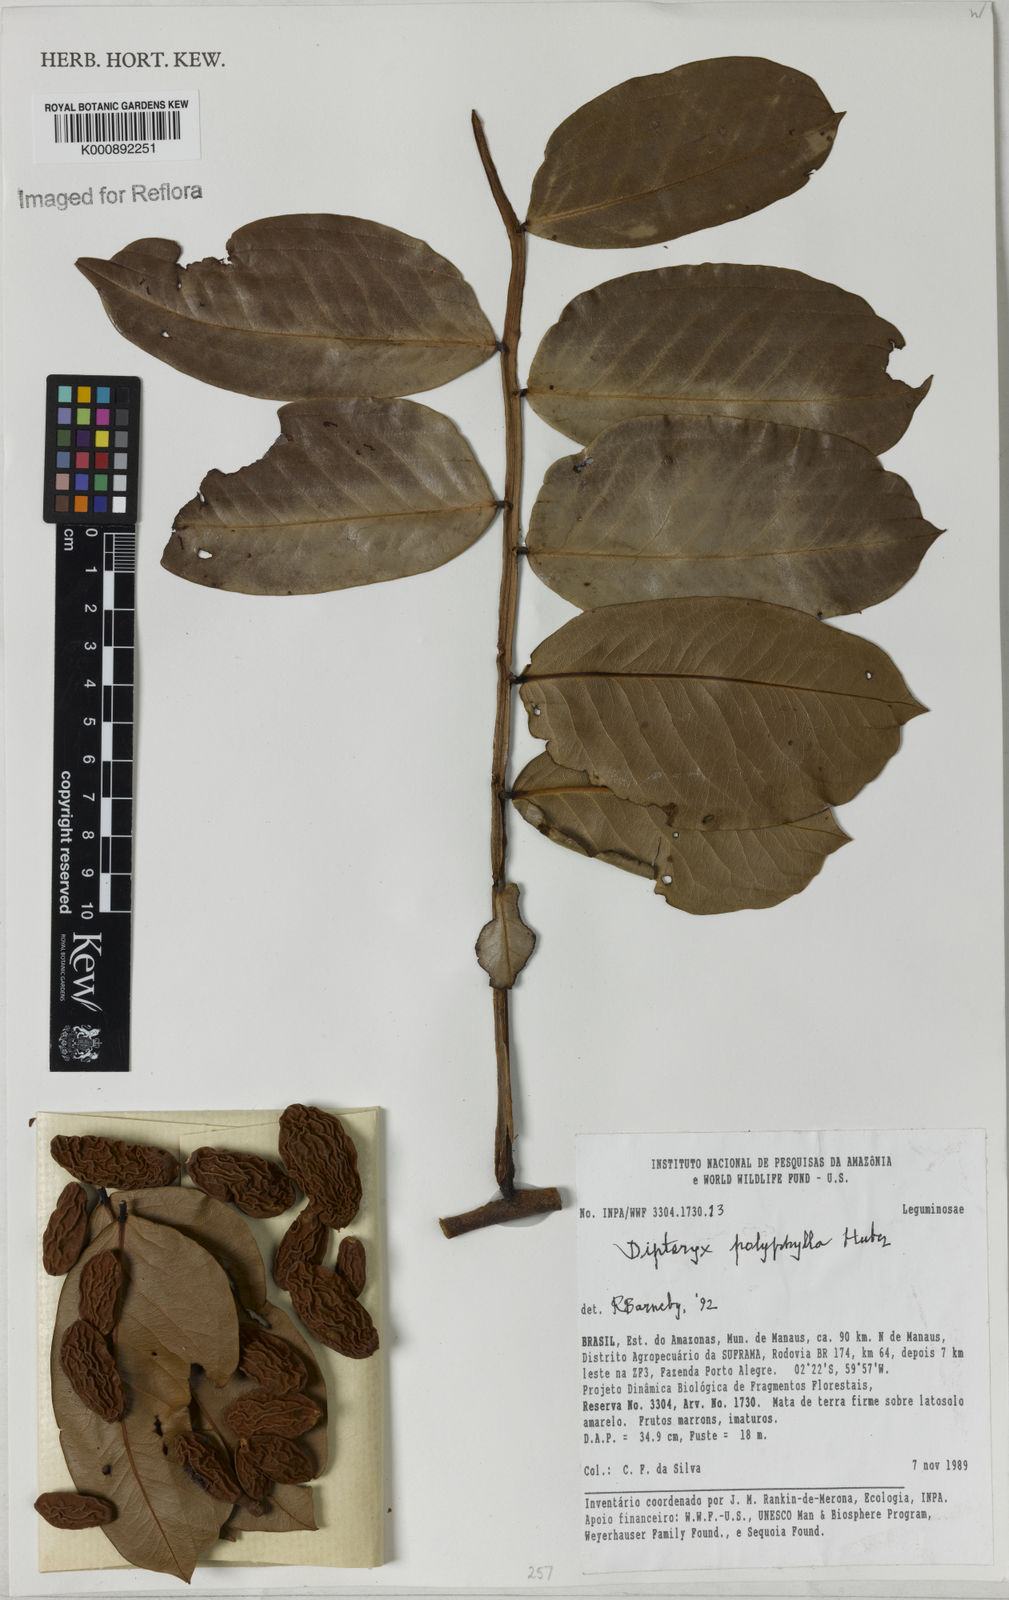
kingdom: Plantae
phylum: Tracheophyta
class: Magnoliopsida
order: Fabales
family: Fabaceae
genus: Dipteryx
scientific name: Dipteryx polyphylla
